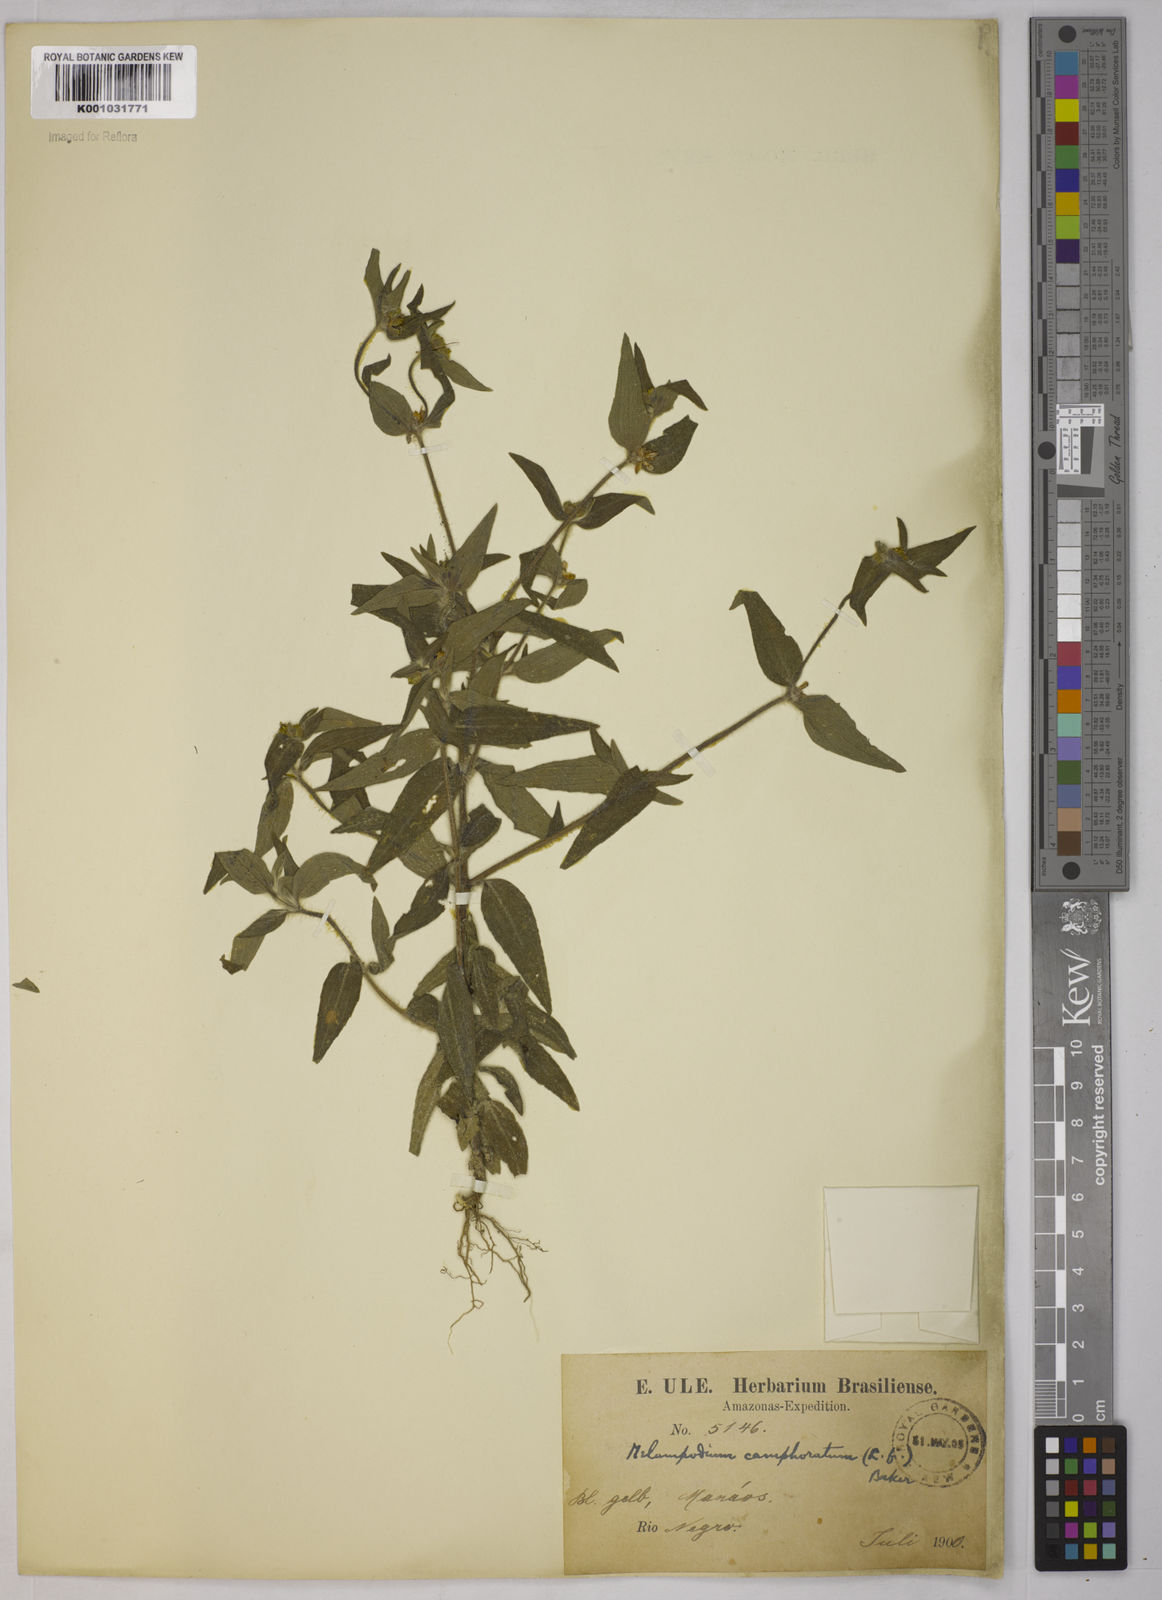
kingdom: Plantae
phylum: Tracheophyta
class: Magnoliopsida
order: Asterales
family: Asteraceae
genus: Unxia
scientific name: Unxia camphorata
